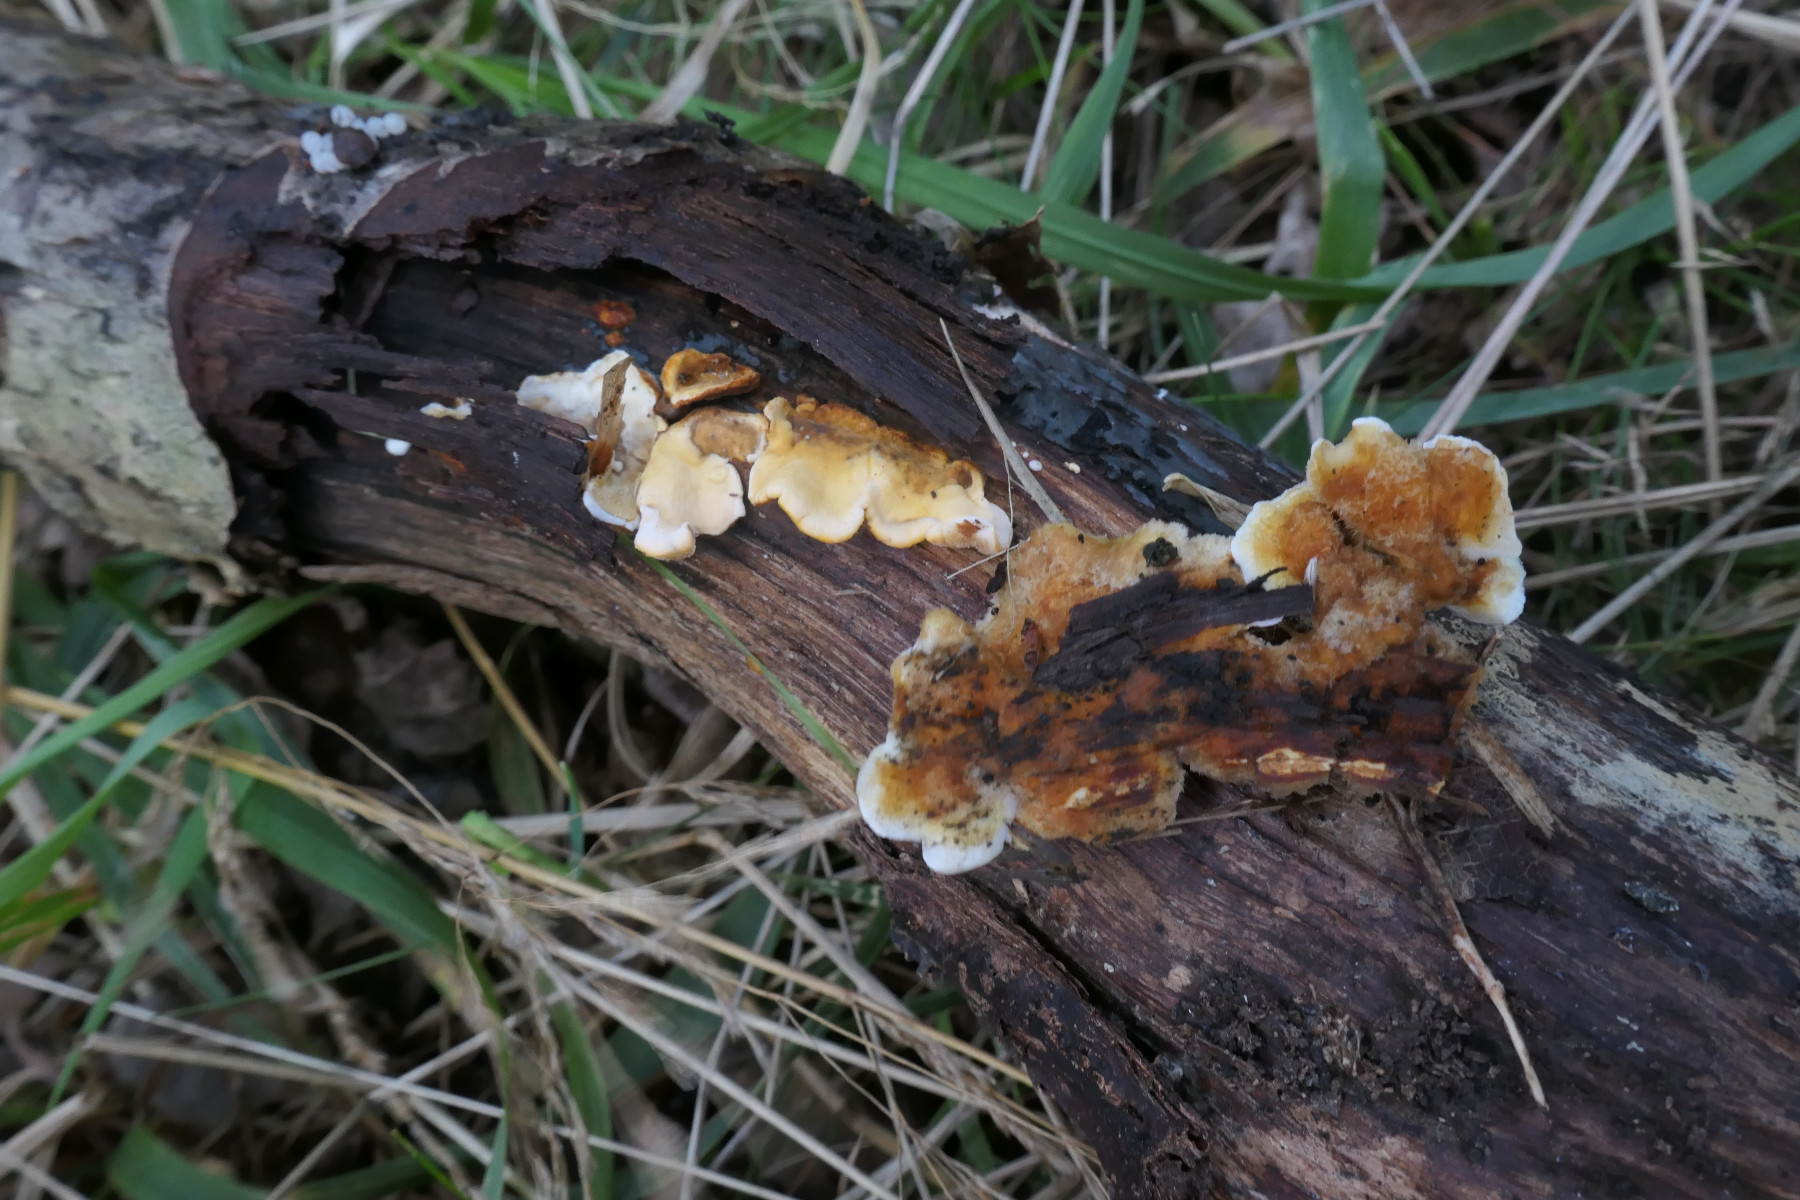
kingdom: Fungi
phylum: Basidiomycota
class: Agaricomycetes
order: Russulales
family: Stereaceae
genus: Stereum
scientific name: Stereum hirsutum
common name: håret lædersvamp
